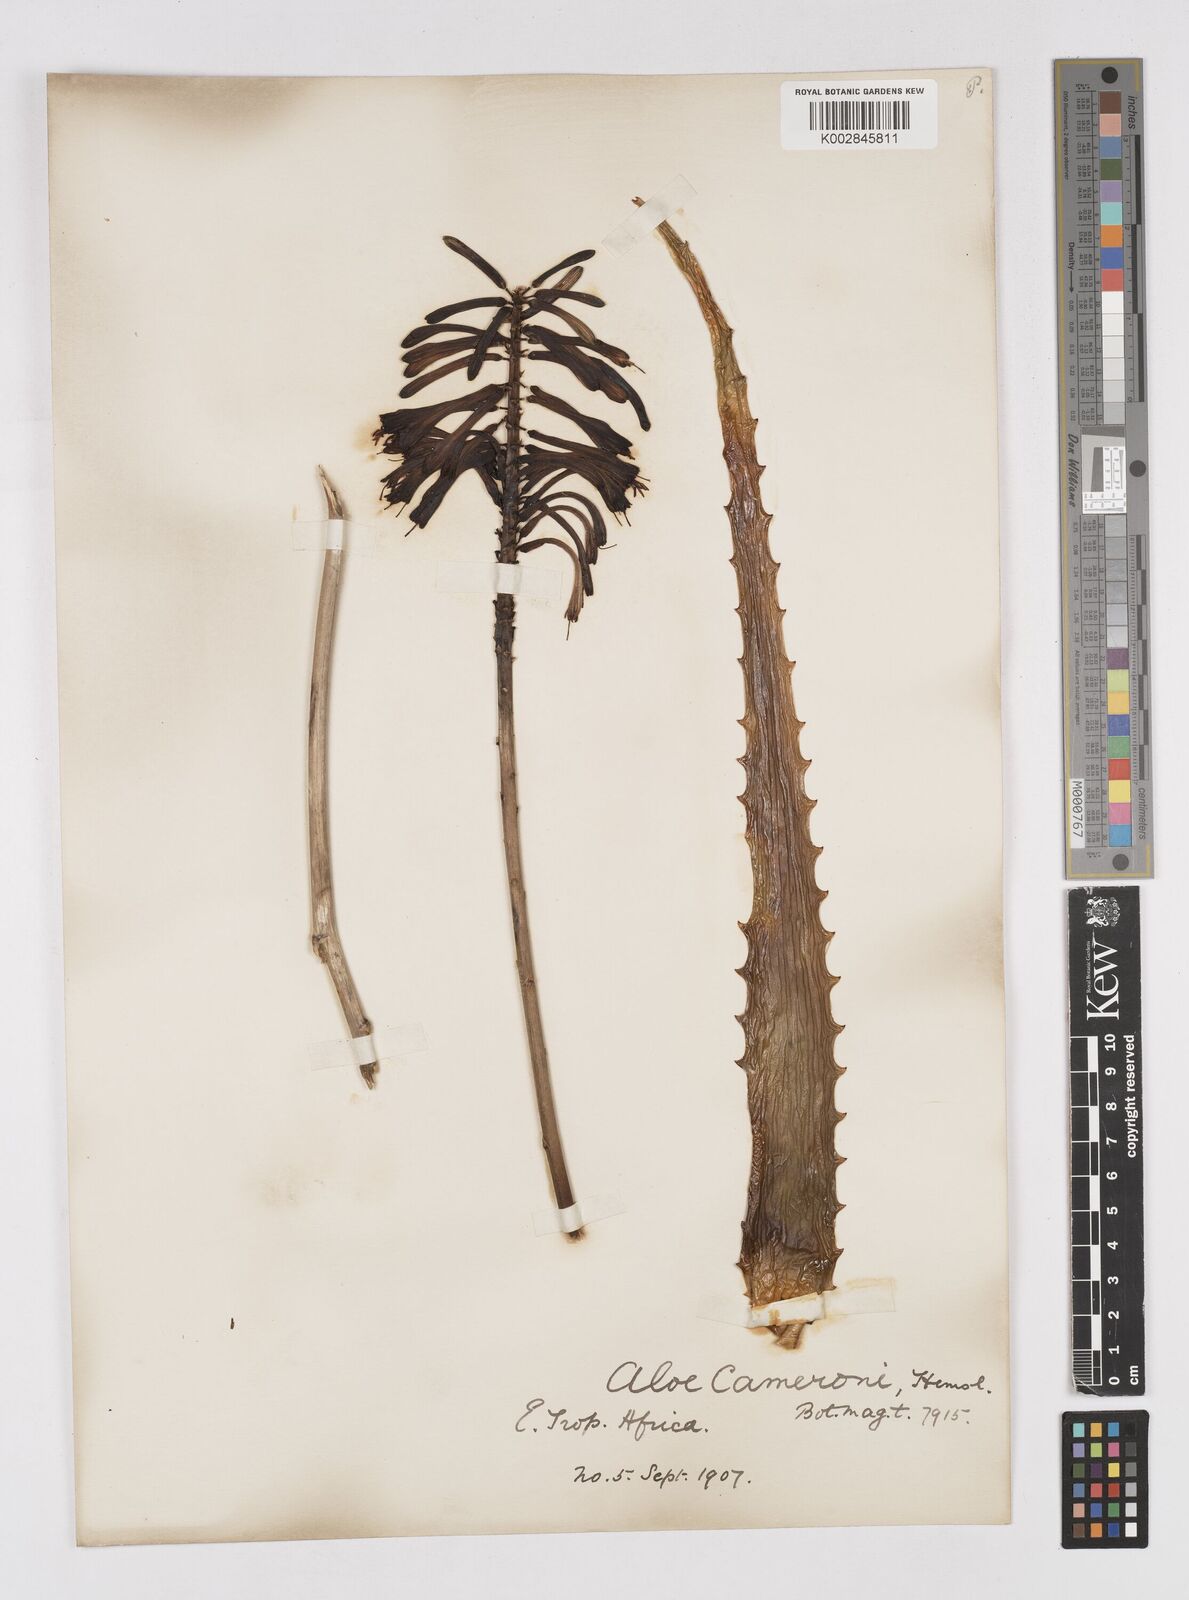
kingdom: Plantae
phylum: Tracheophyta
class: Liliopsida
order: Asparagales
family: Asphodelaceae
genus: Aloe
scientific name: Aloe cameronii
